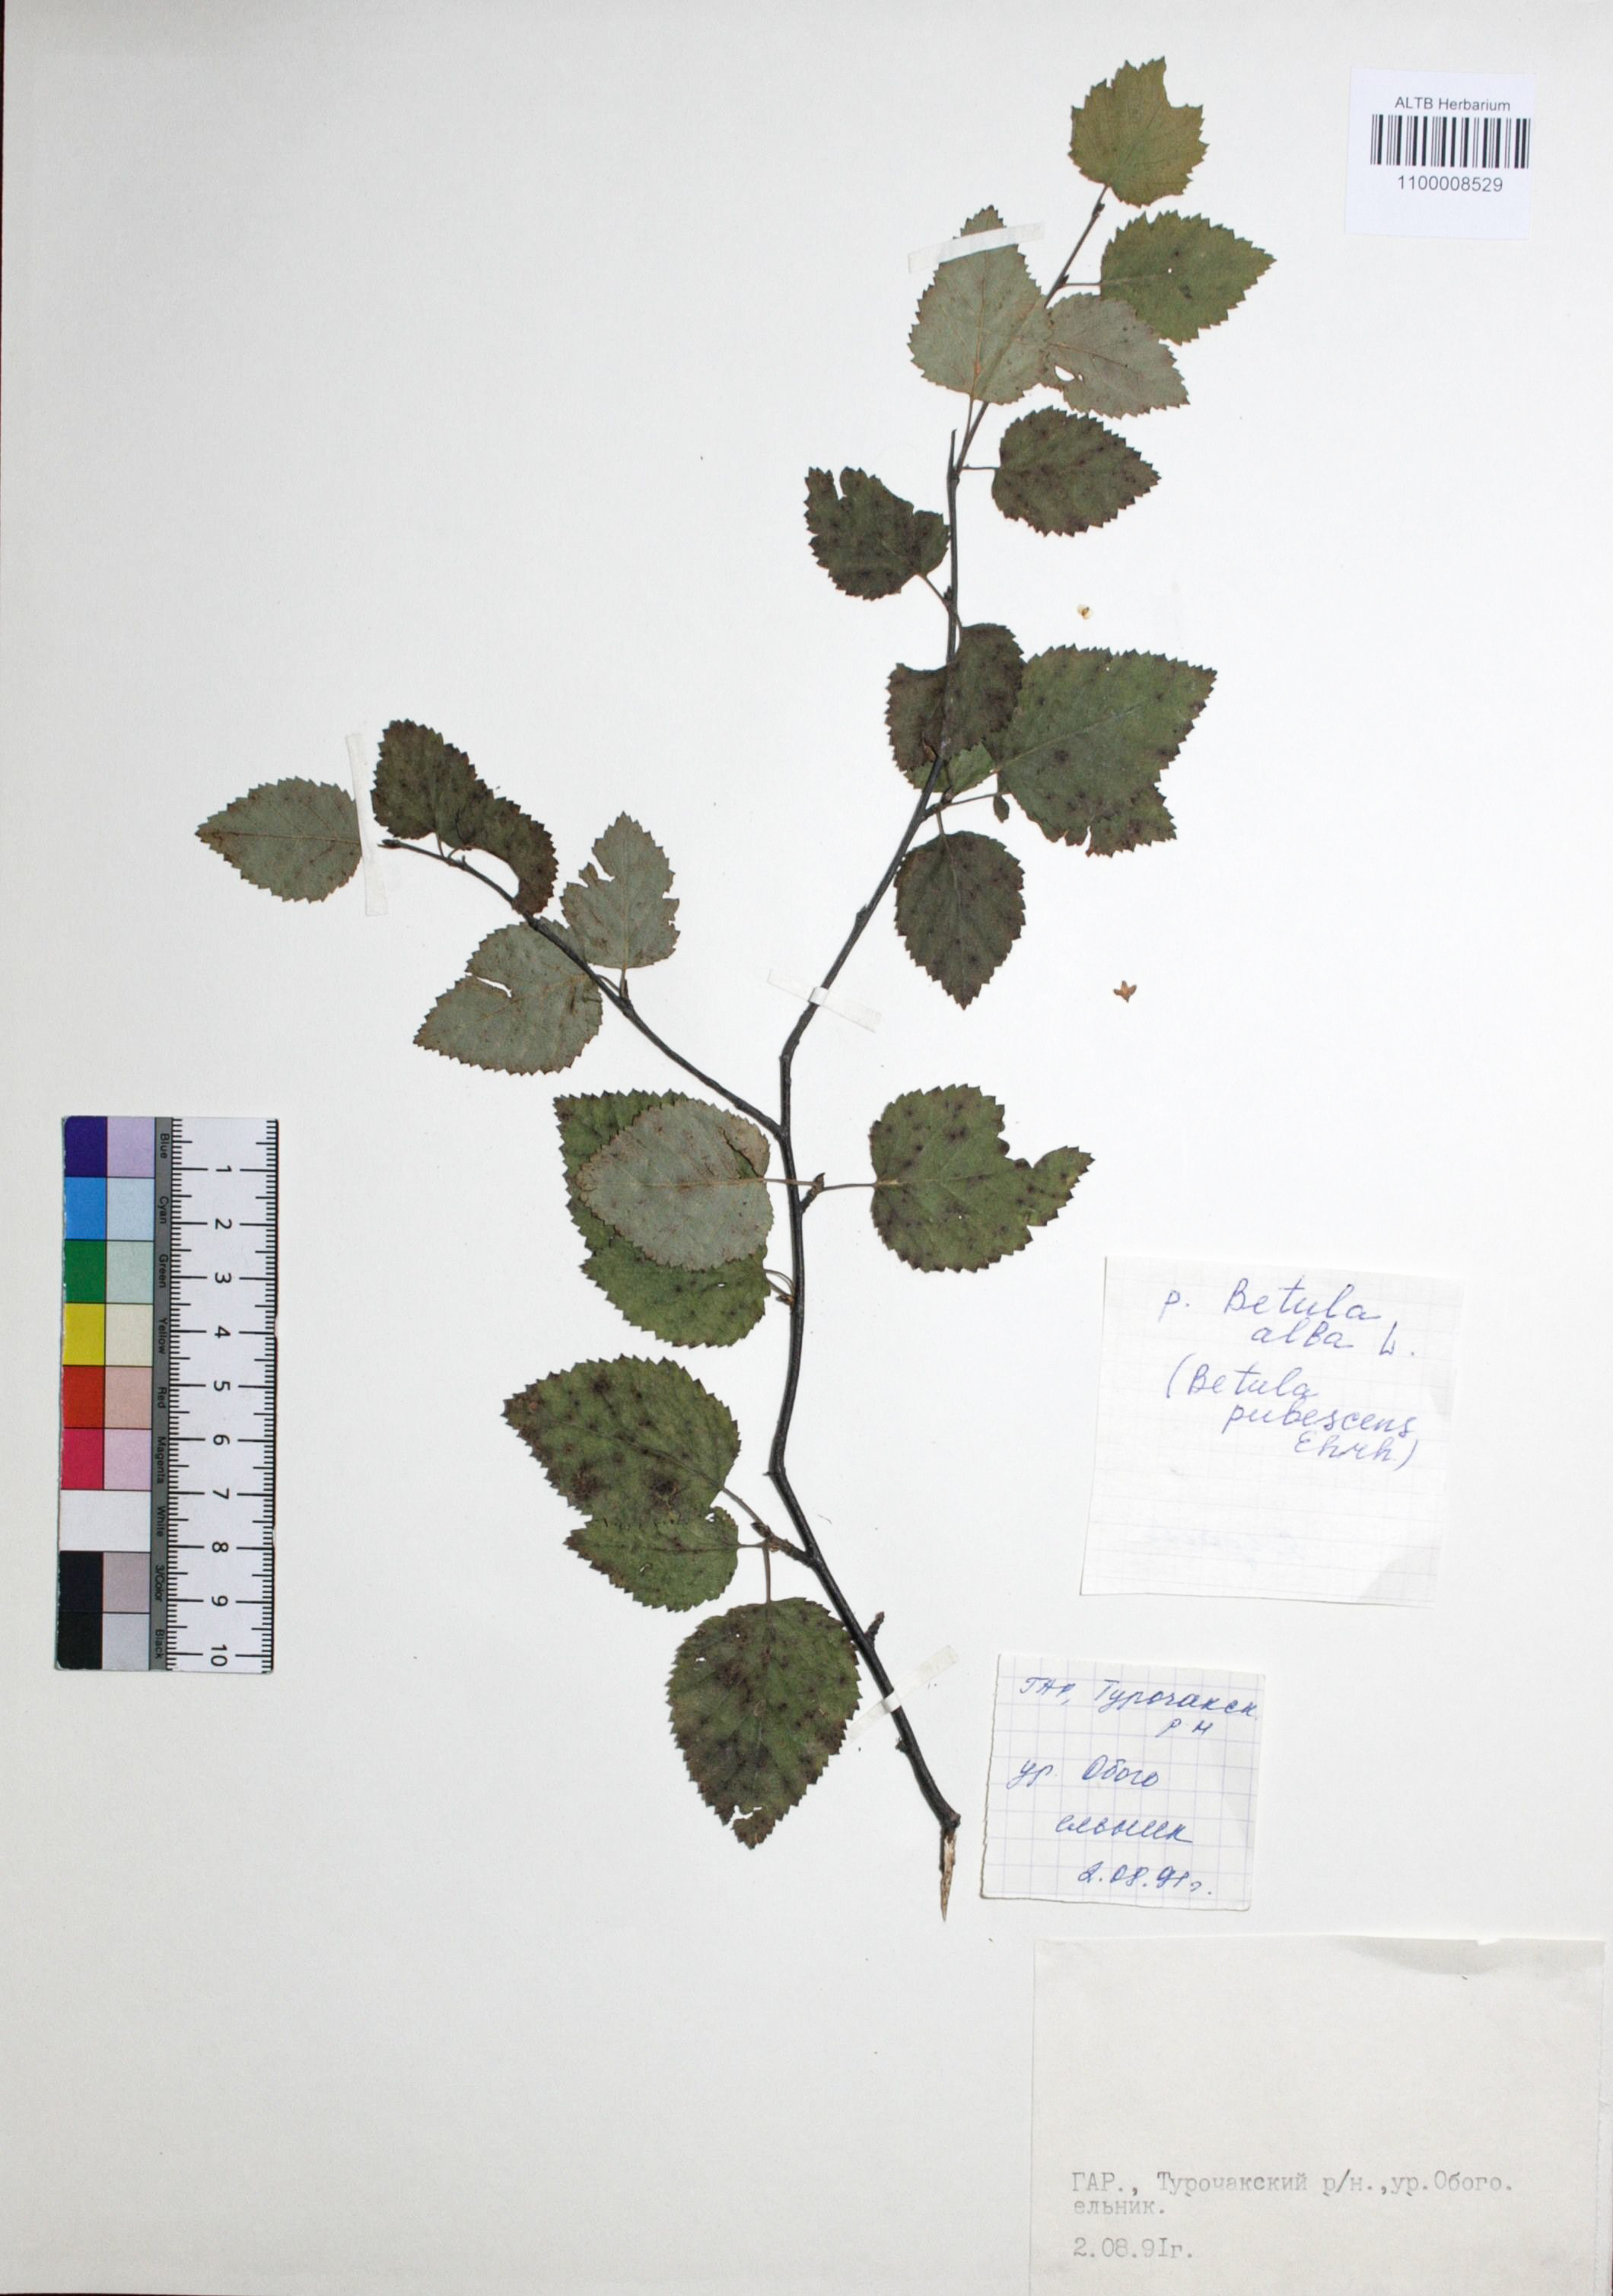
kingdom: Plantae
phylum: Tracheophyta
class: Magnoliopsida
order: Fagales
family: Betulaceae
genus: Betula
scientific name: Betula pubescens
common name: Downy birch
